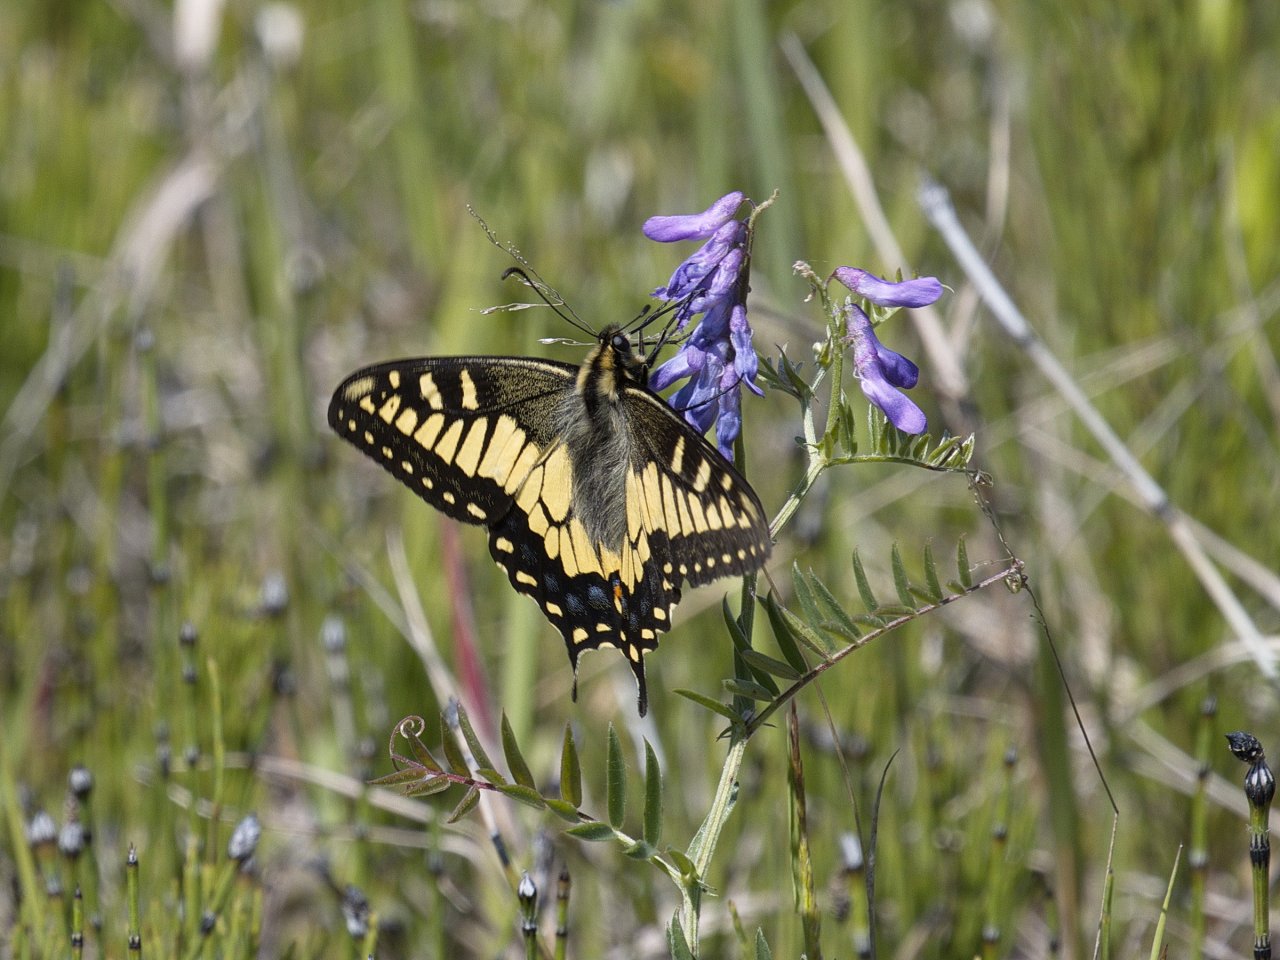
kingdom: Animalia
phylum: Arthropoda
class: Insecta
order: Lepidoptera
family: Papilionidae
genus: Papilio
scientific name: Papilio machaon
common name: Old World Swallowtail
